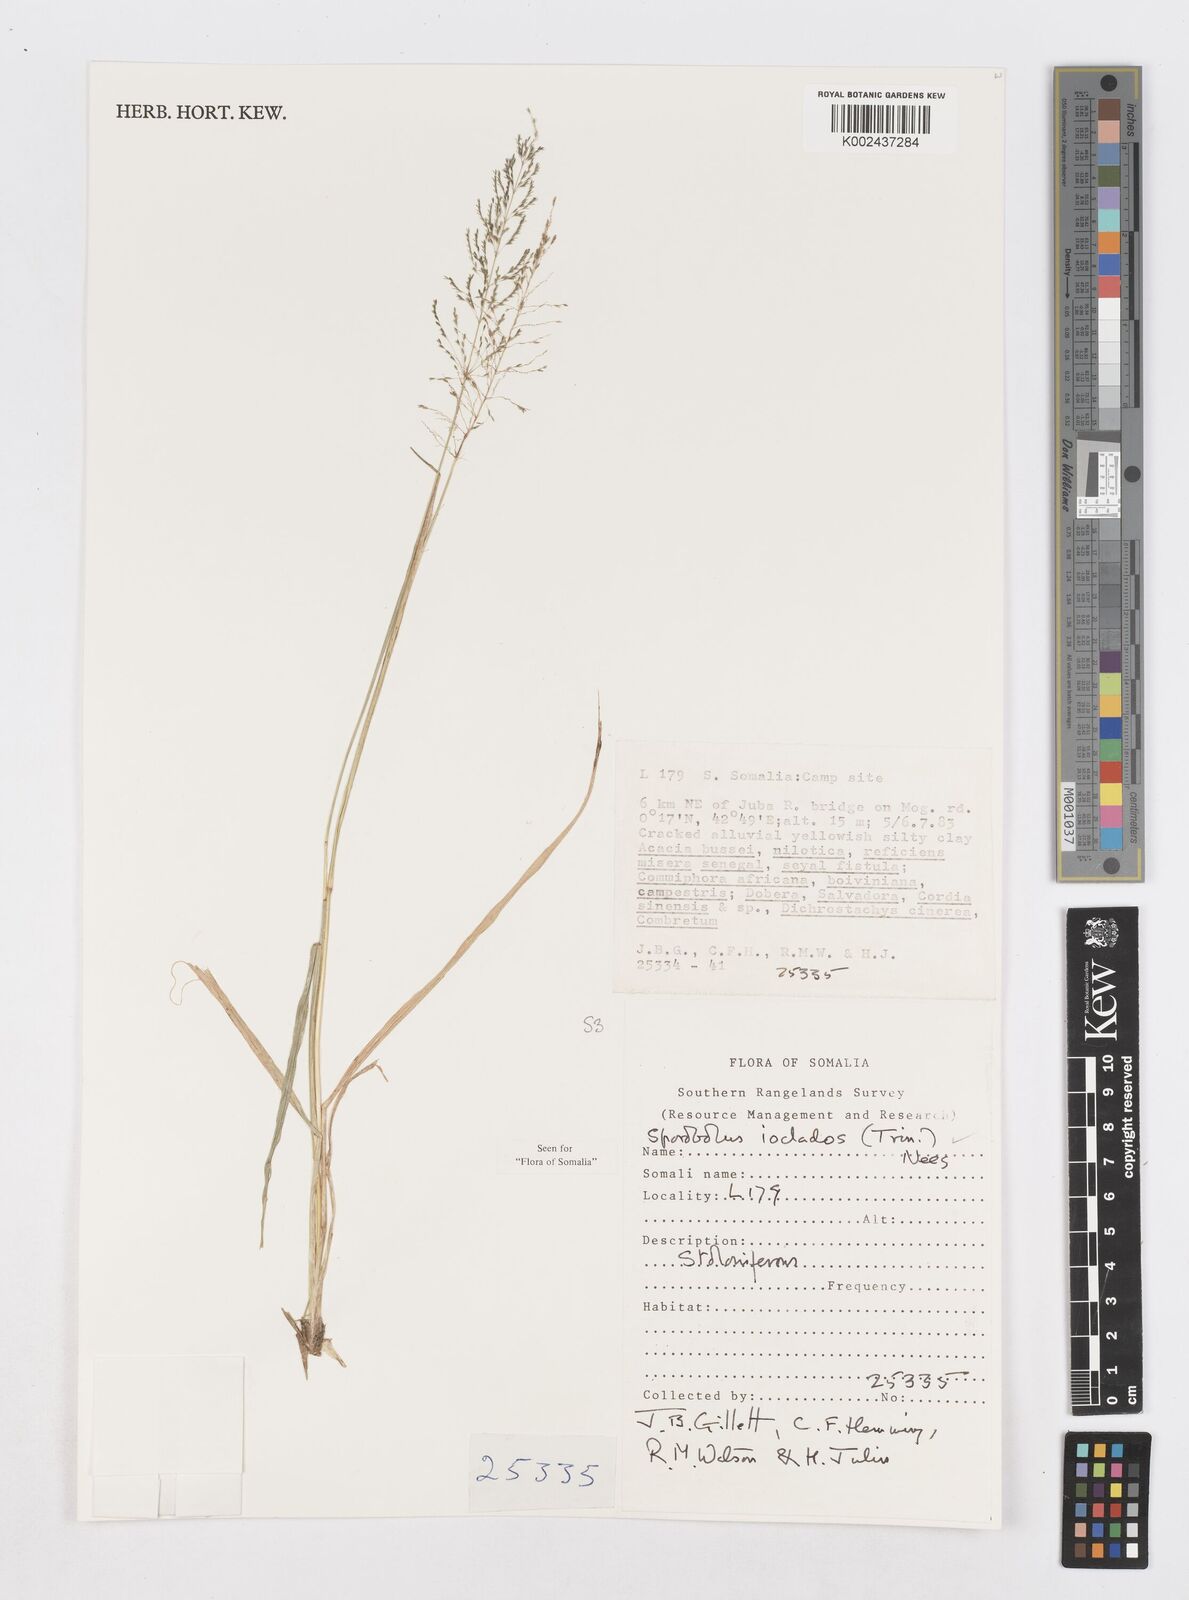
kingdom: Plantae
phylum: Tracheophyta
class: Liliopsida
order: Poales
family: Poaceae
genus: Sporobolus
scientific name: Sporobolus ioclados
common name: Pan dropseed
